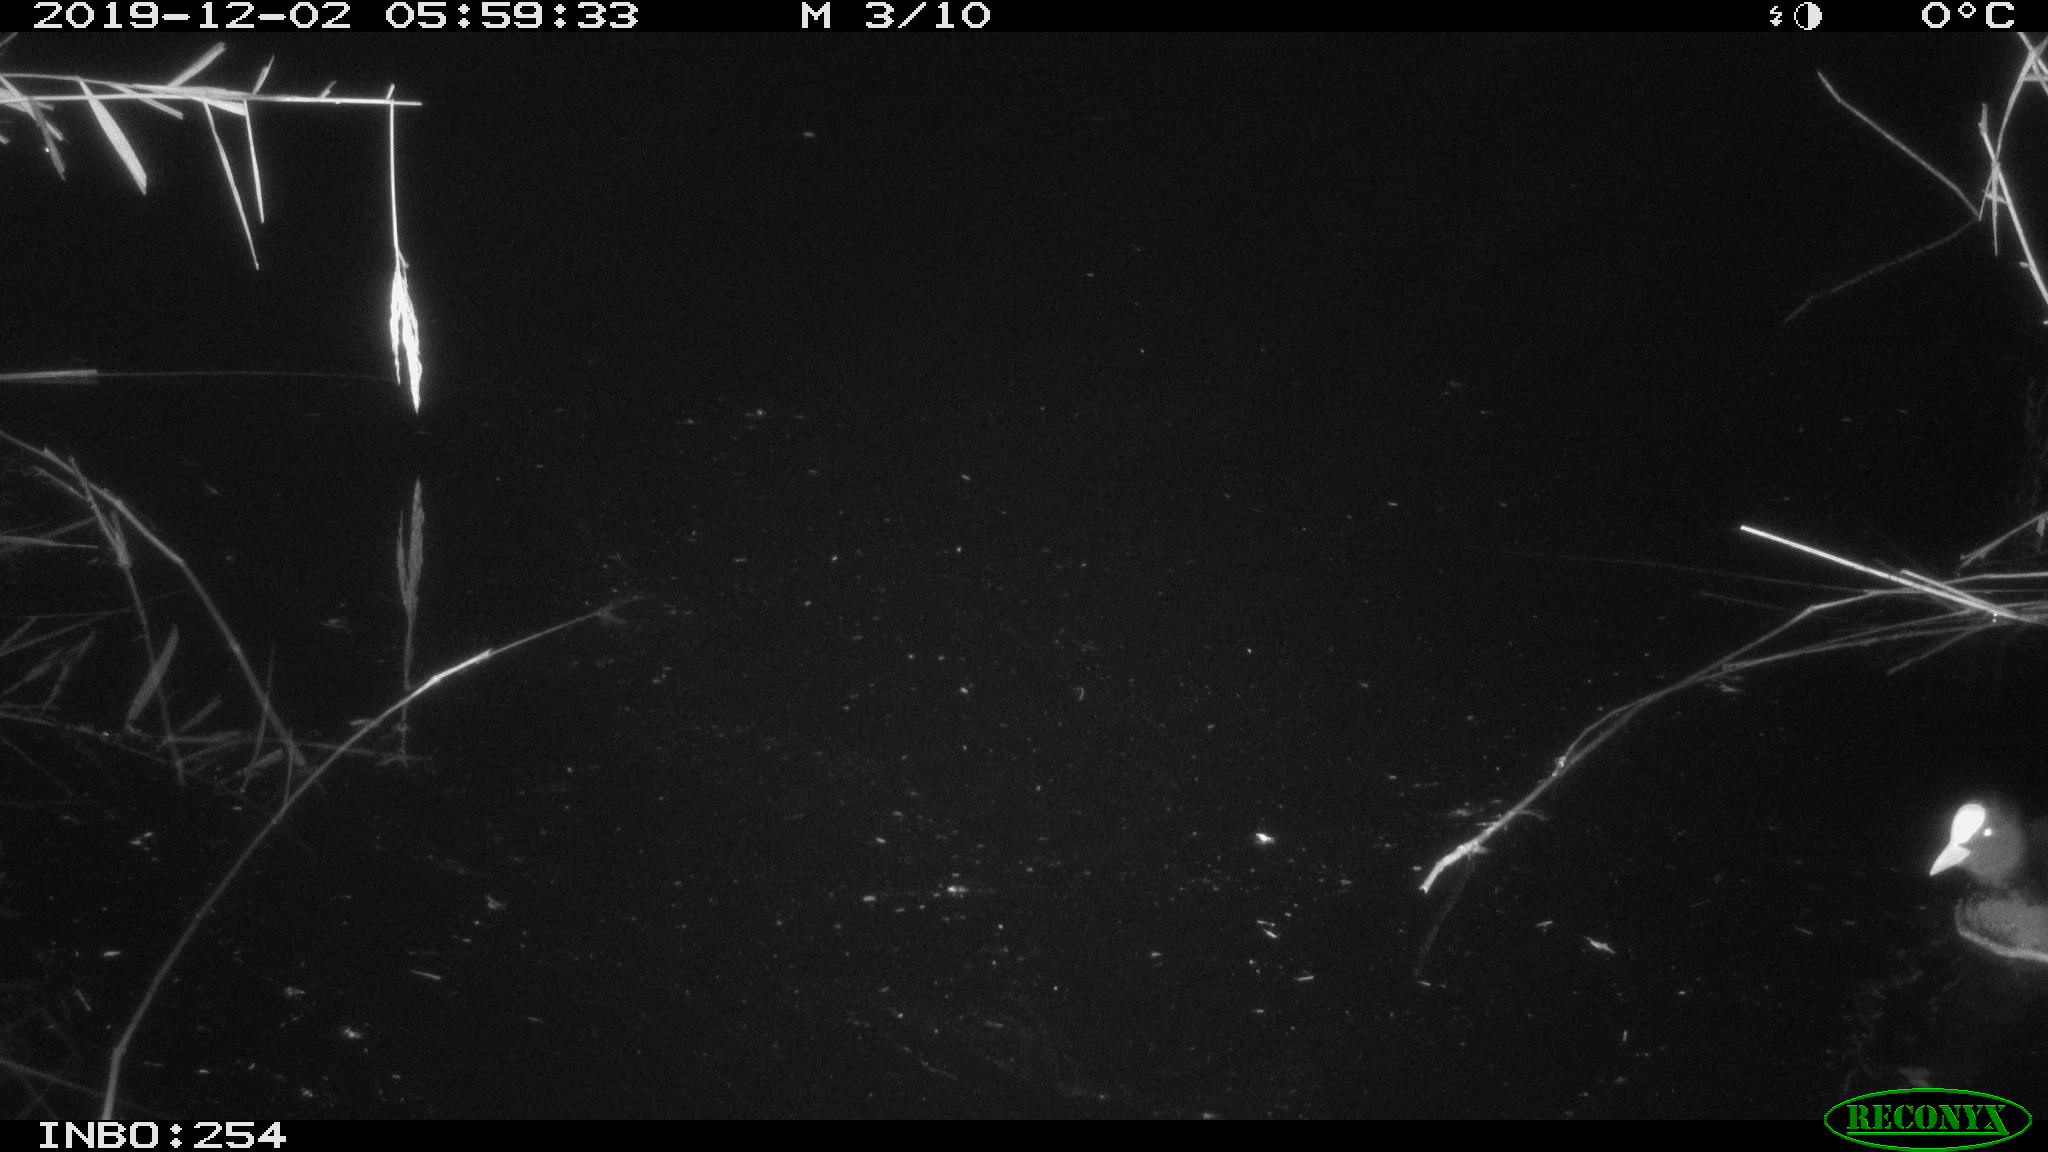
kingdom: Animalia
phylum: Chordata
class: Aves
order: Gruiformes
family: Rallidae
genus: Fulica
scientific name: Fulica atra
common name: Eurasian coot
